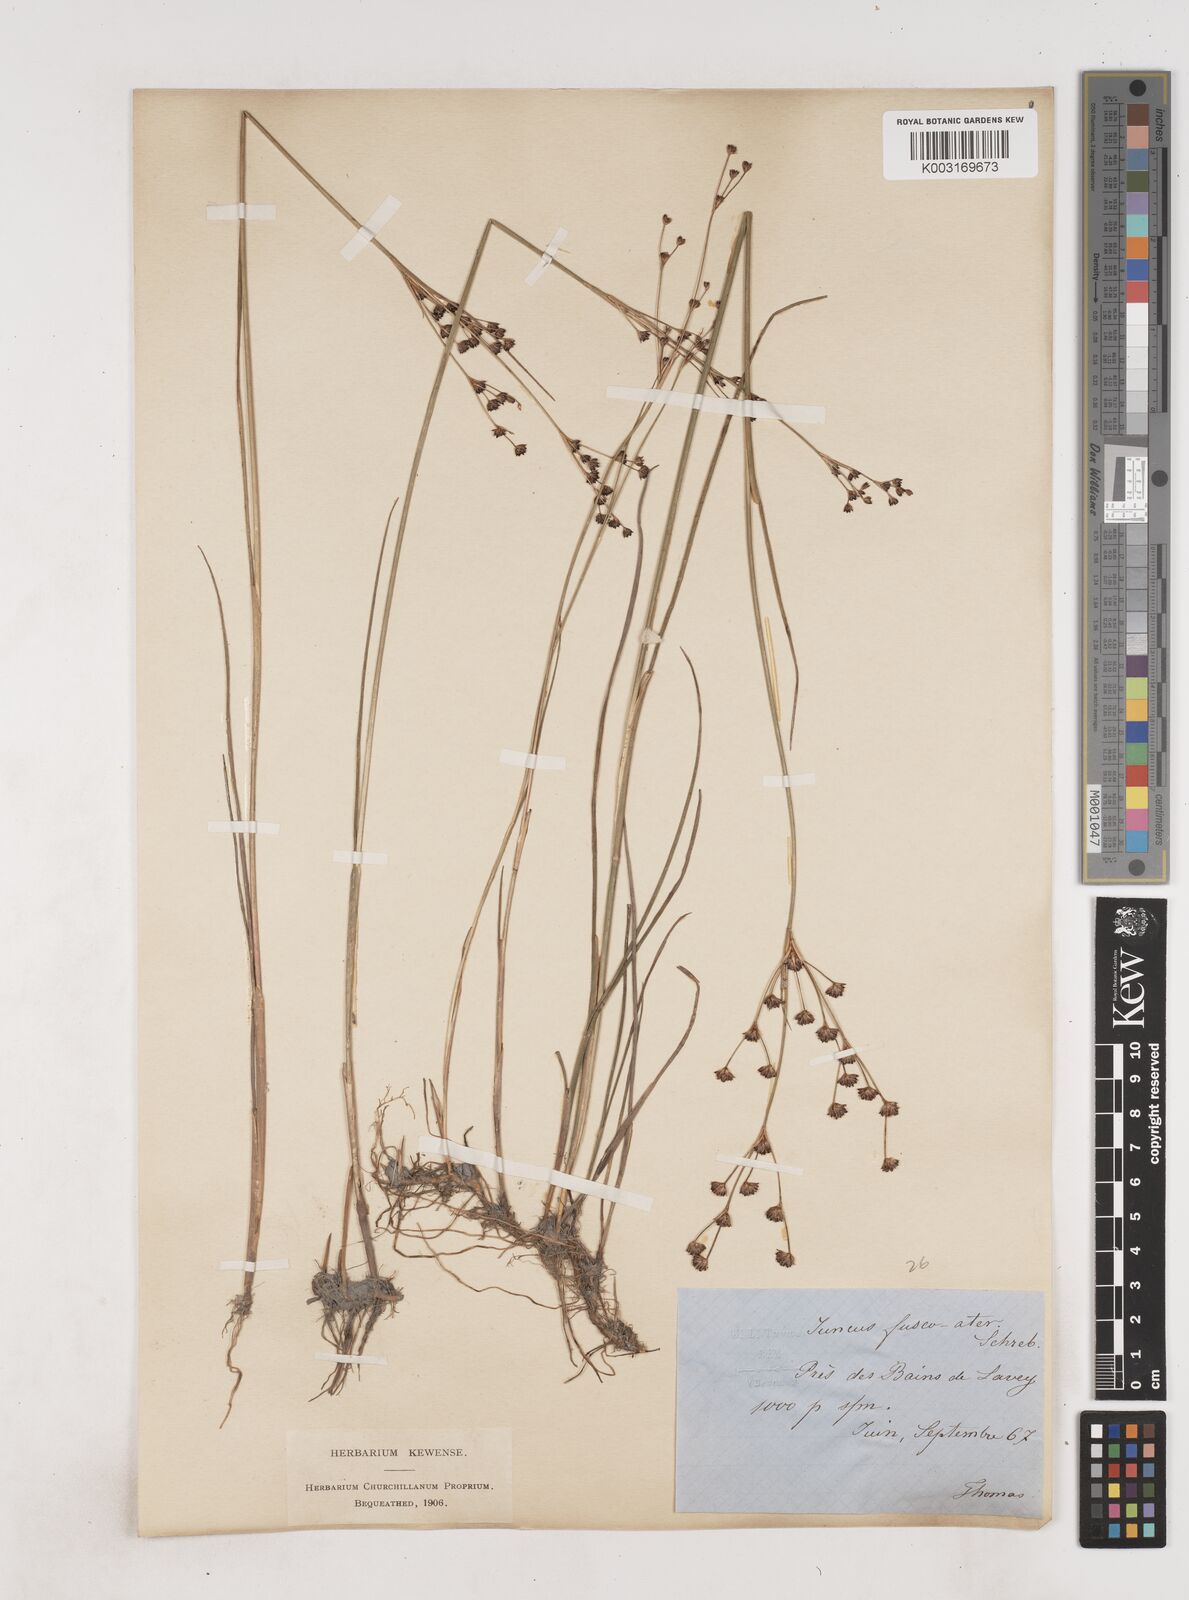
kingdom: Plantae
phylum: Tracheophyta
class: Liliopsida
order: Poales
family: Juncaceae
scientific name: Juncaceae
